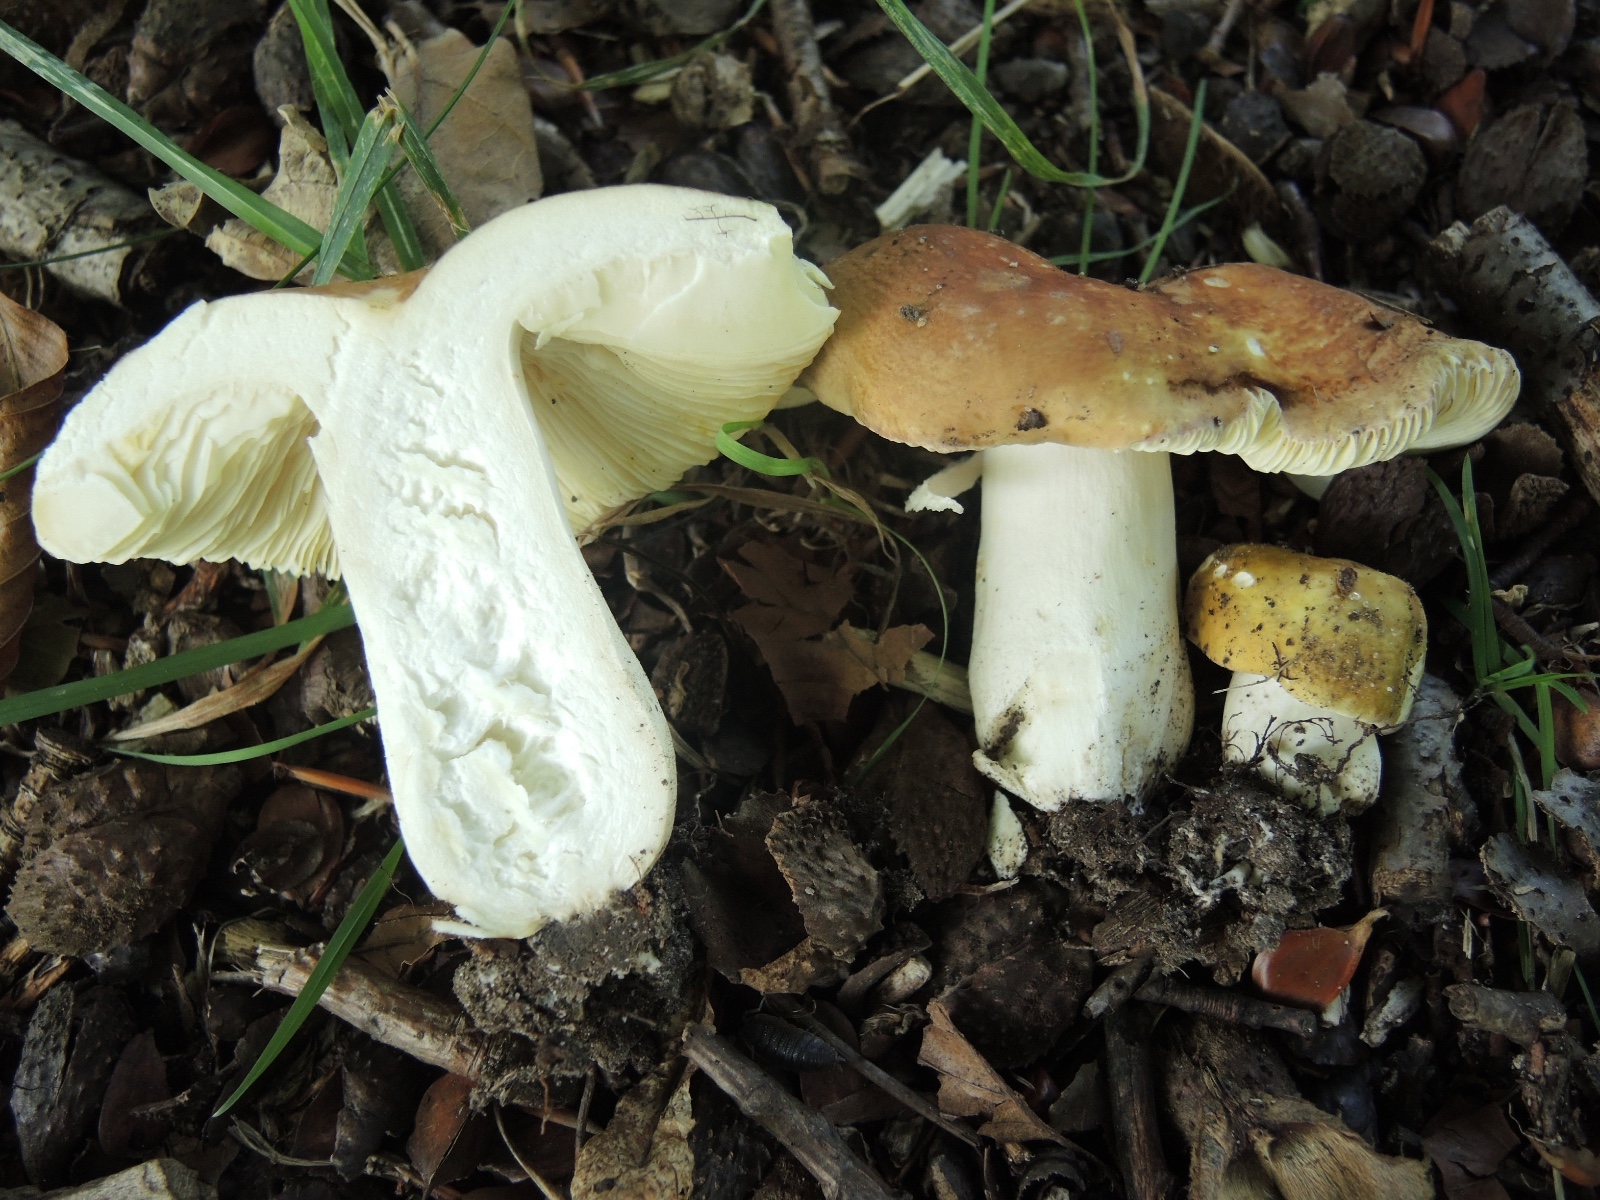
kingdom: Fungi
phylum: Basidiomycota
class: Agaricomycetes
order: Russulales
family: Russulaceae
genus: Russula
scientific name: Russula olivacea
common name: stor skørhat
